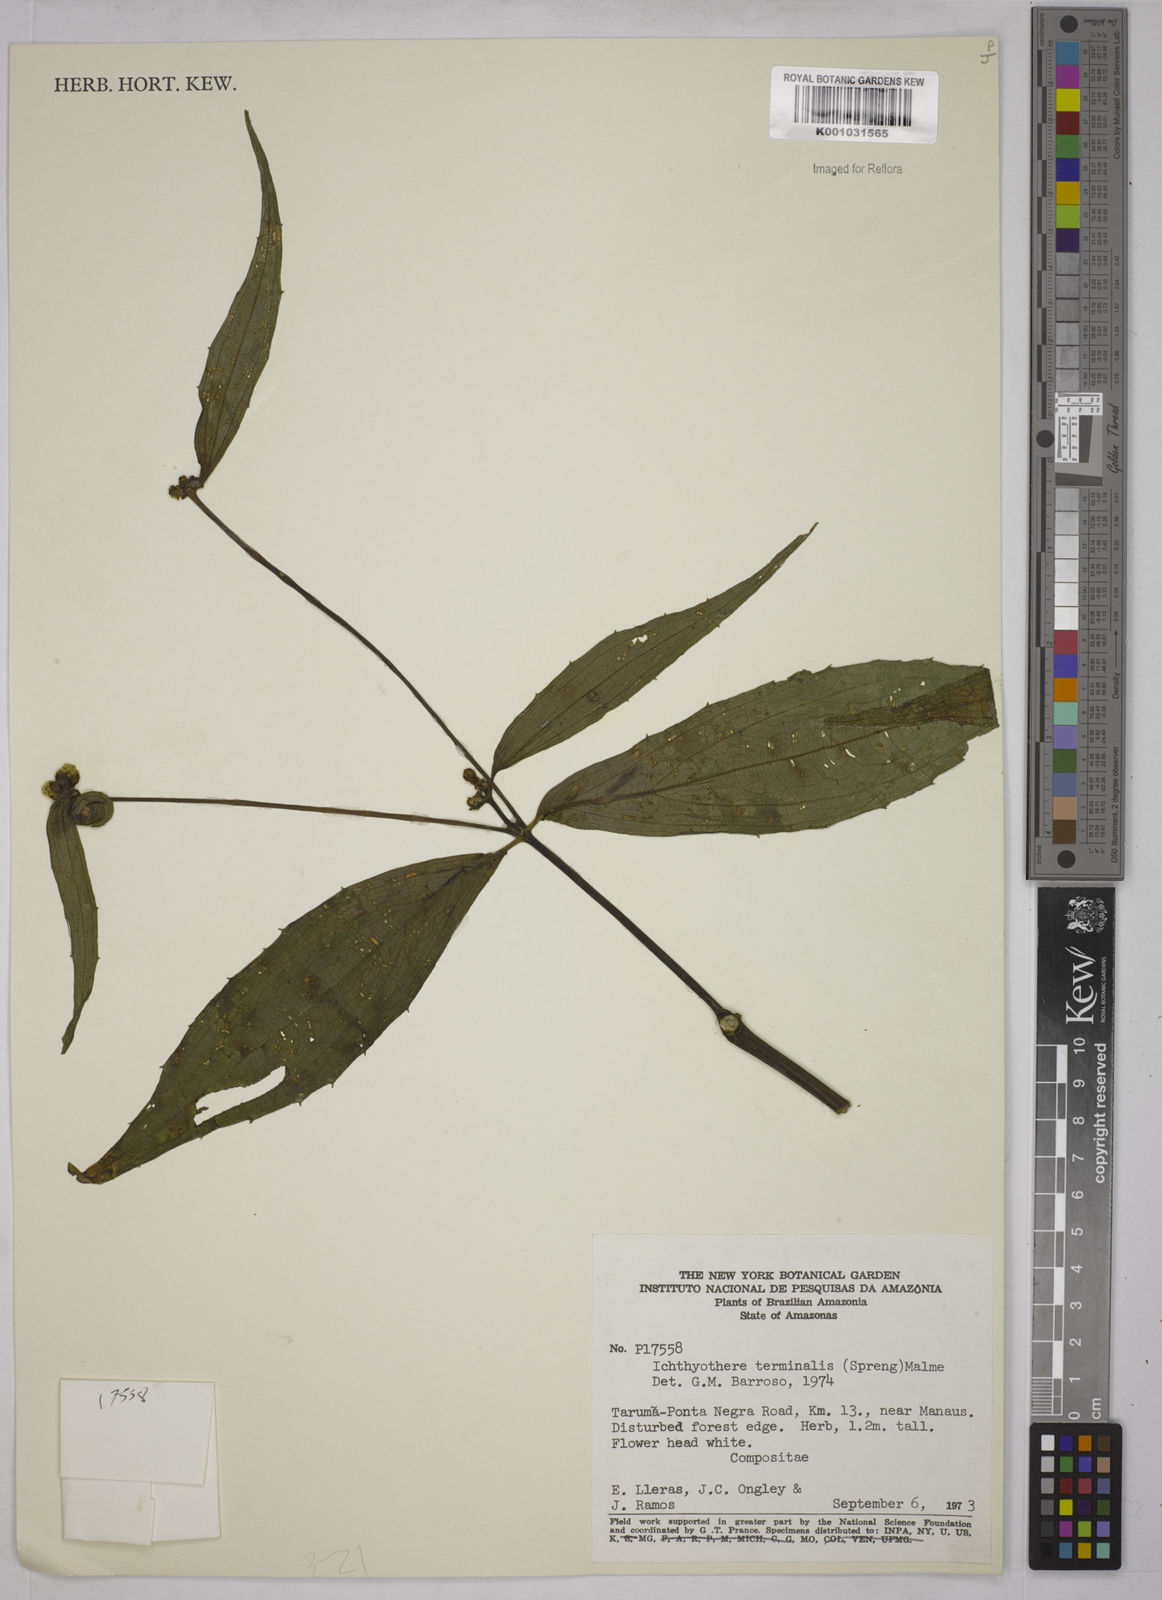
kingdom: Plantae
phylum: Tracheophyta
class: Magnoliopsida
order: Asterales
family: Asteraceae
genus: Ichthyothere
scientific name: Ichthyothere cunabi
